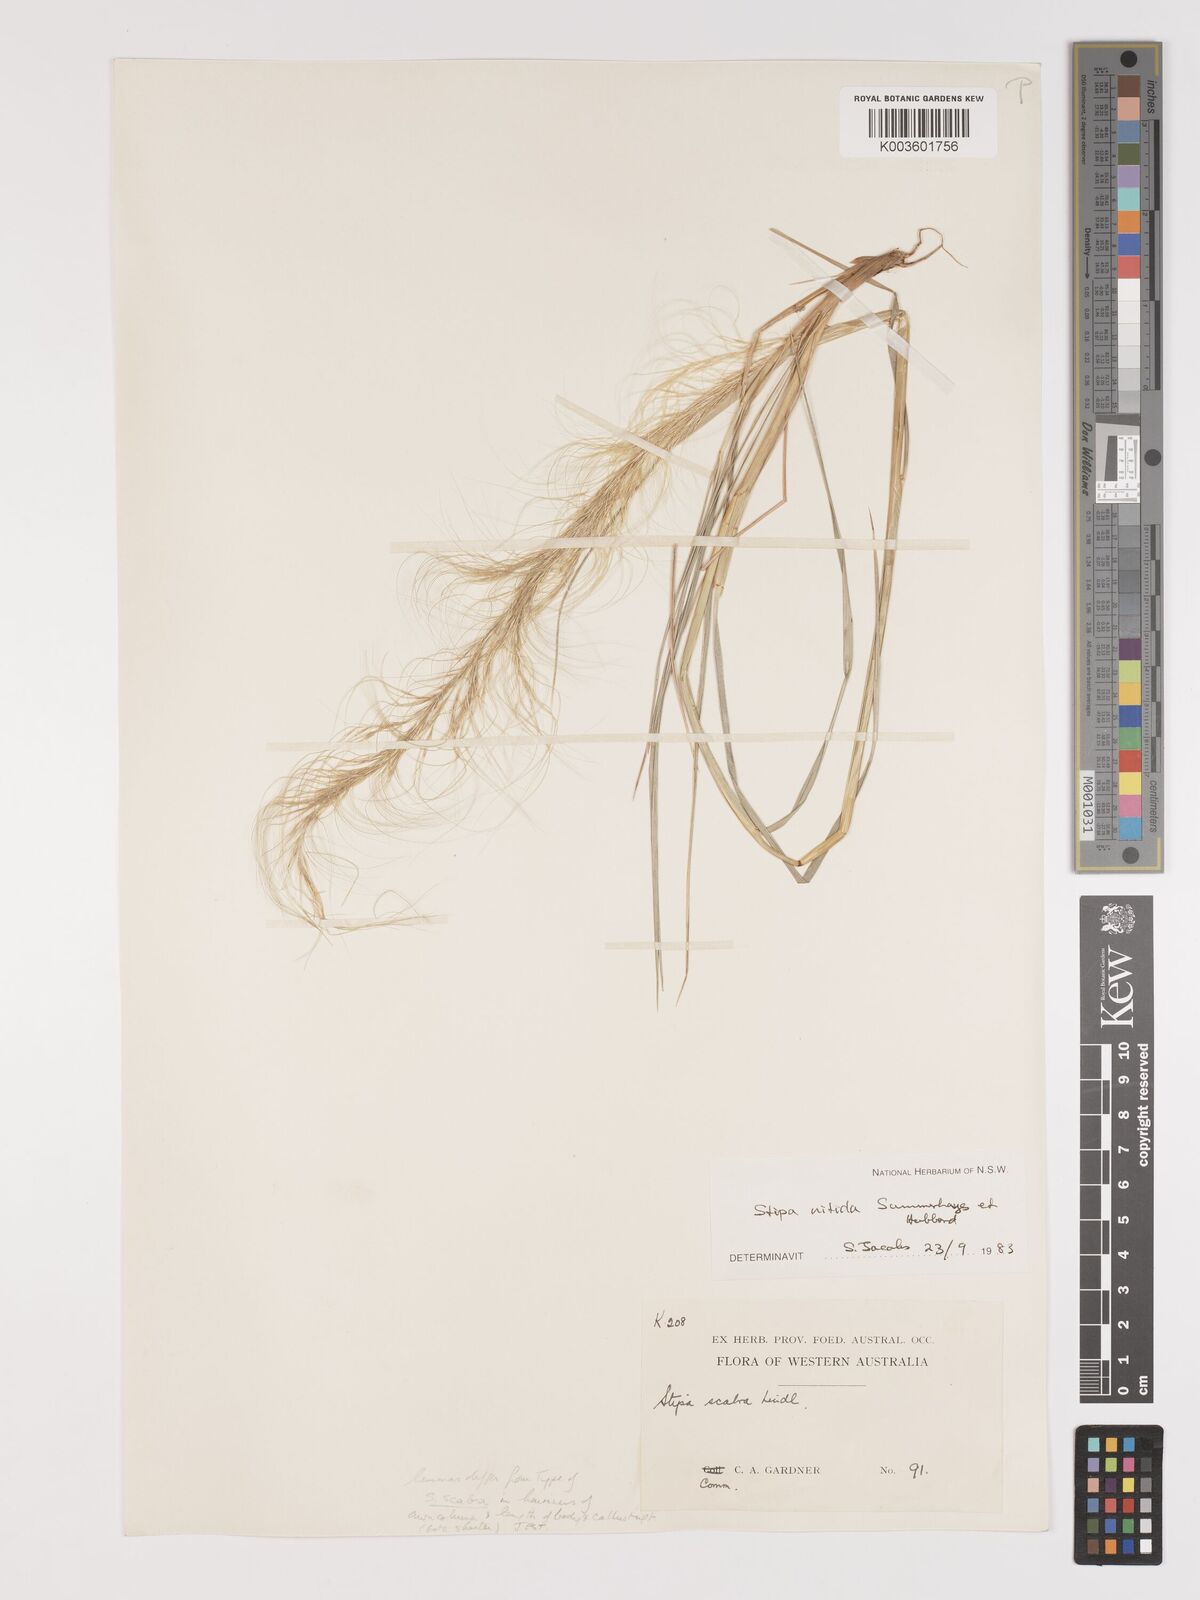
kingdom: Plantae
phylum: Tracheophyta
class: Liliopsida
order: Poales
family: Poaceae
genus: Austrostipa
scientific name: Austrostipa nitida
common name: Balcarra grass
